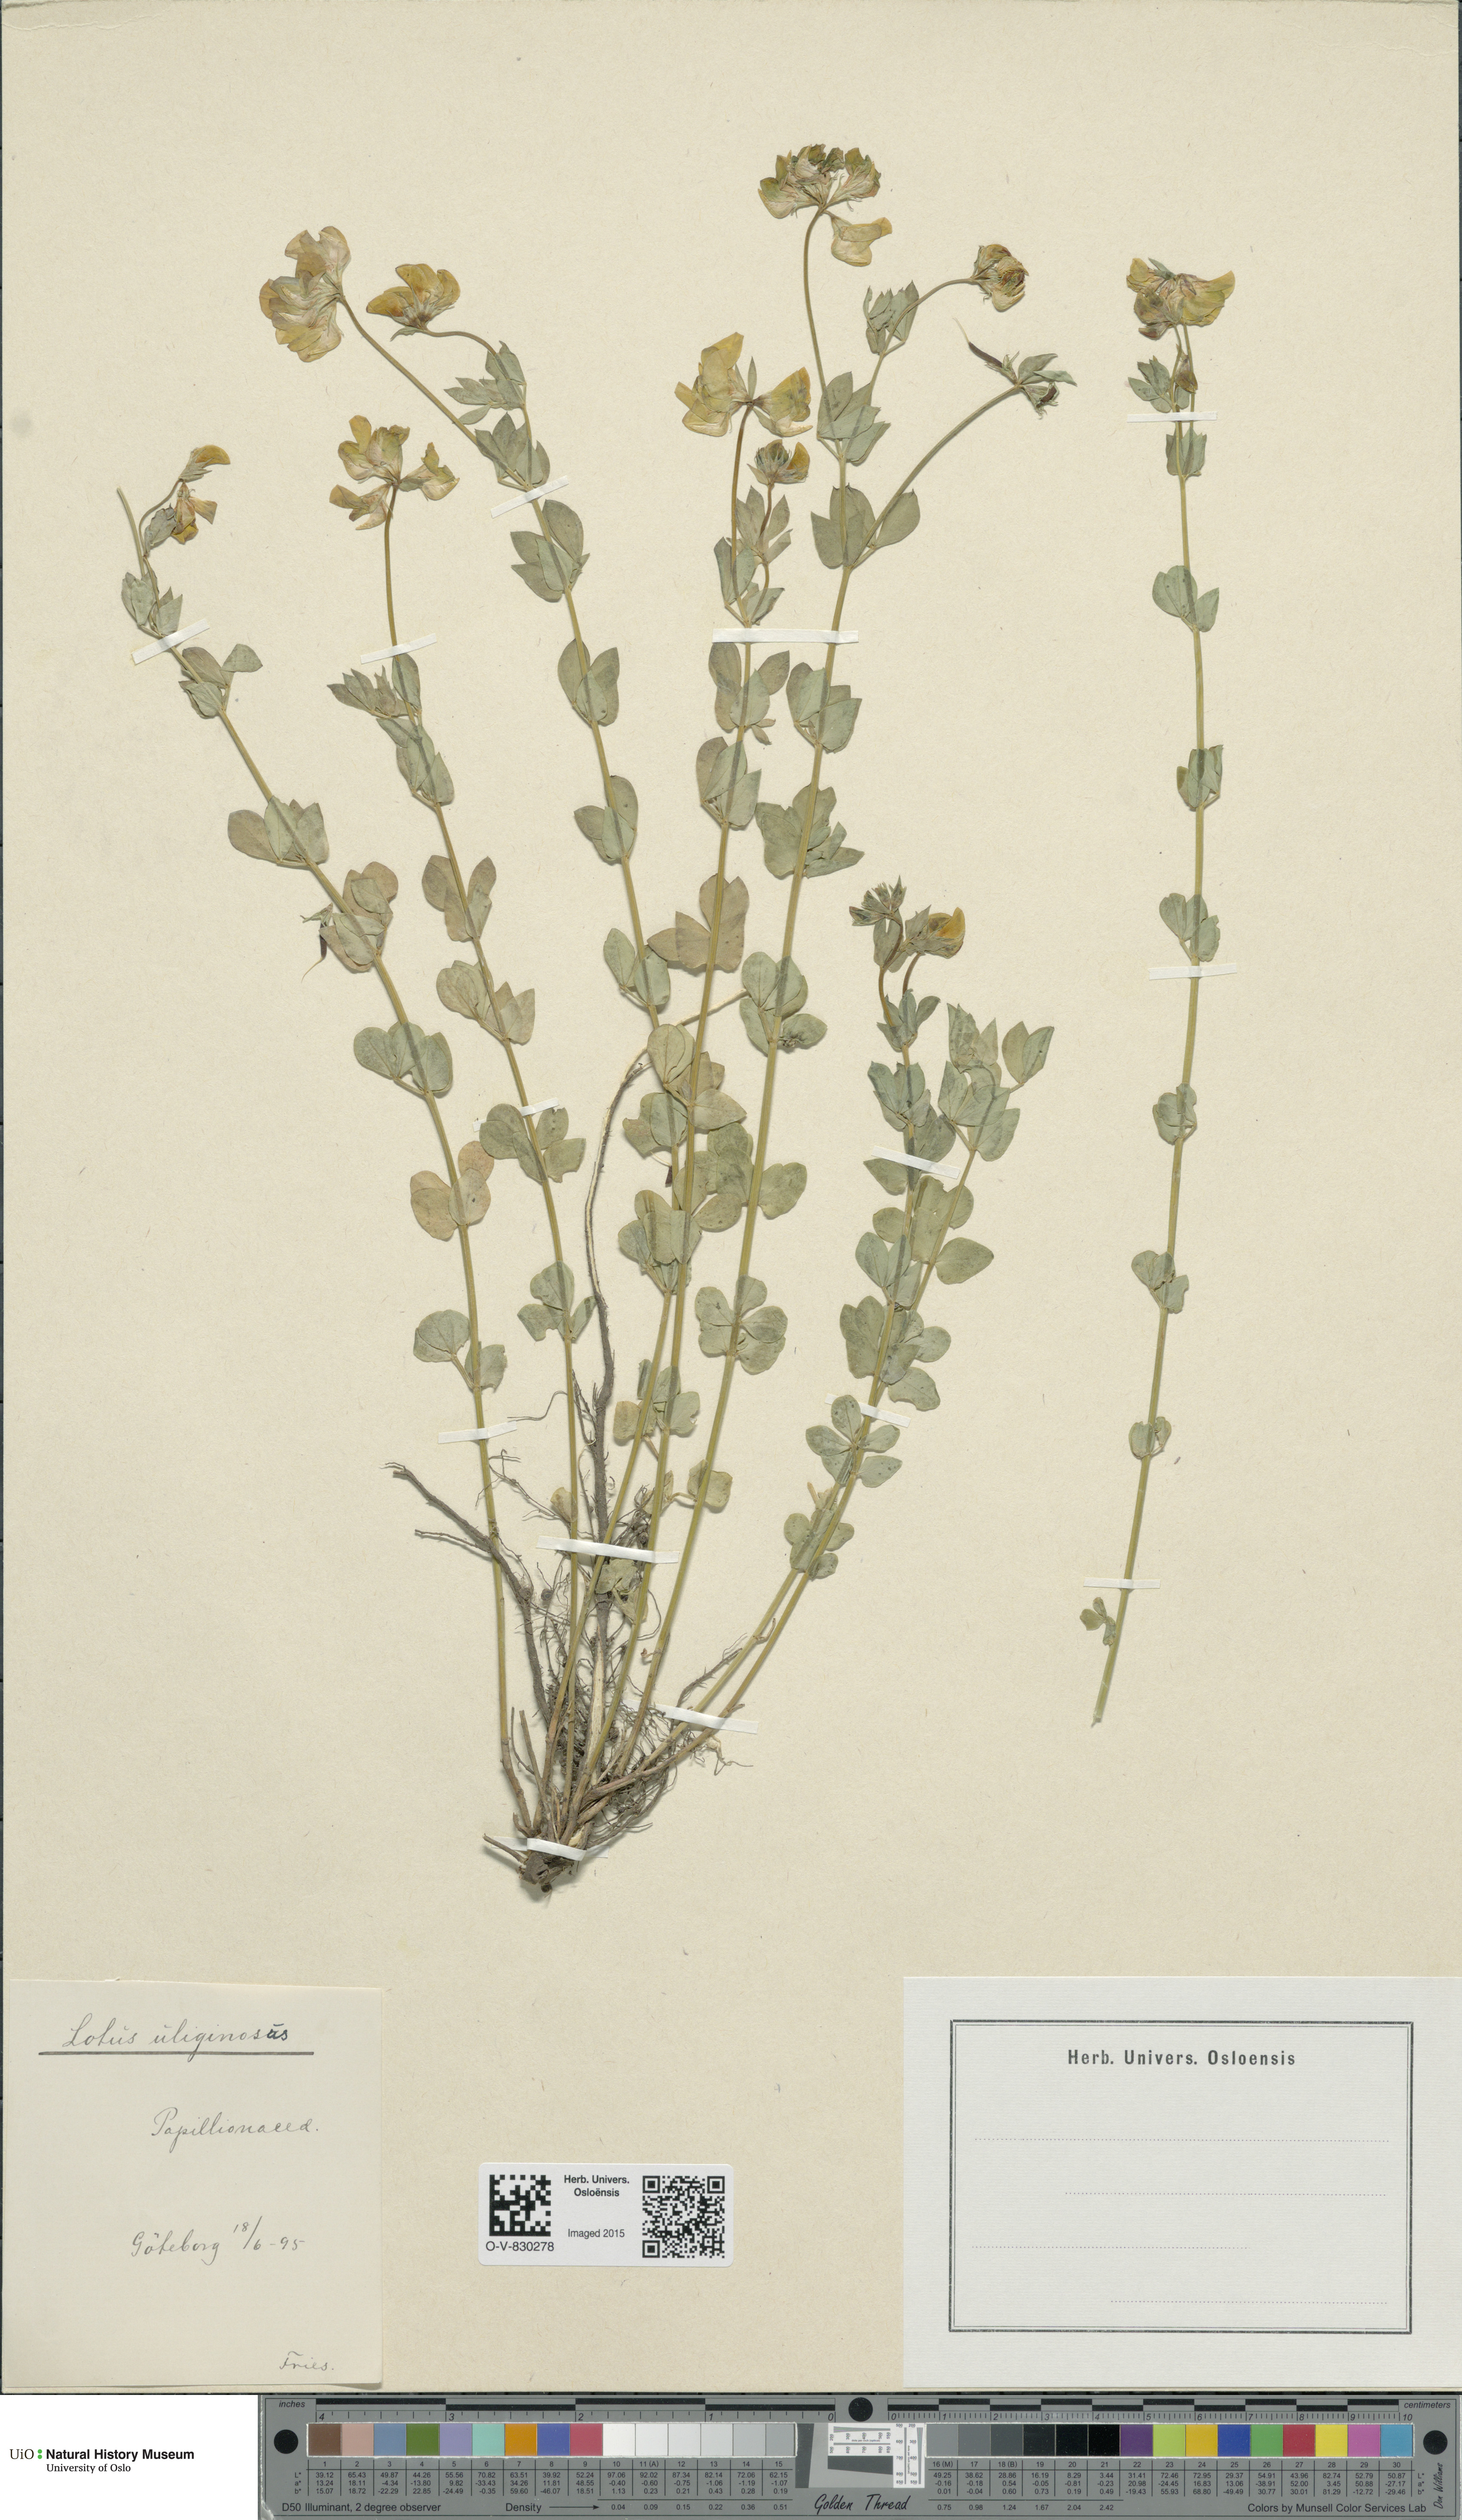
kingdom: Plantae
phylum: Tracheophyta
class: Magnoliopsida
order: Fabales
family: Fabaceae
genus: Lotus
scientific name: Lotus pedunculatus
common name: Greater birdsfoot-trefoil
